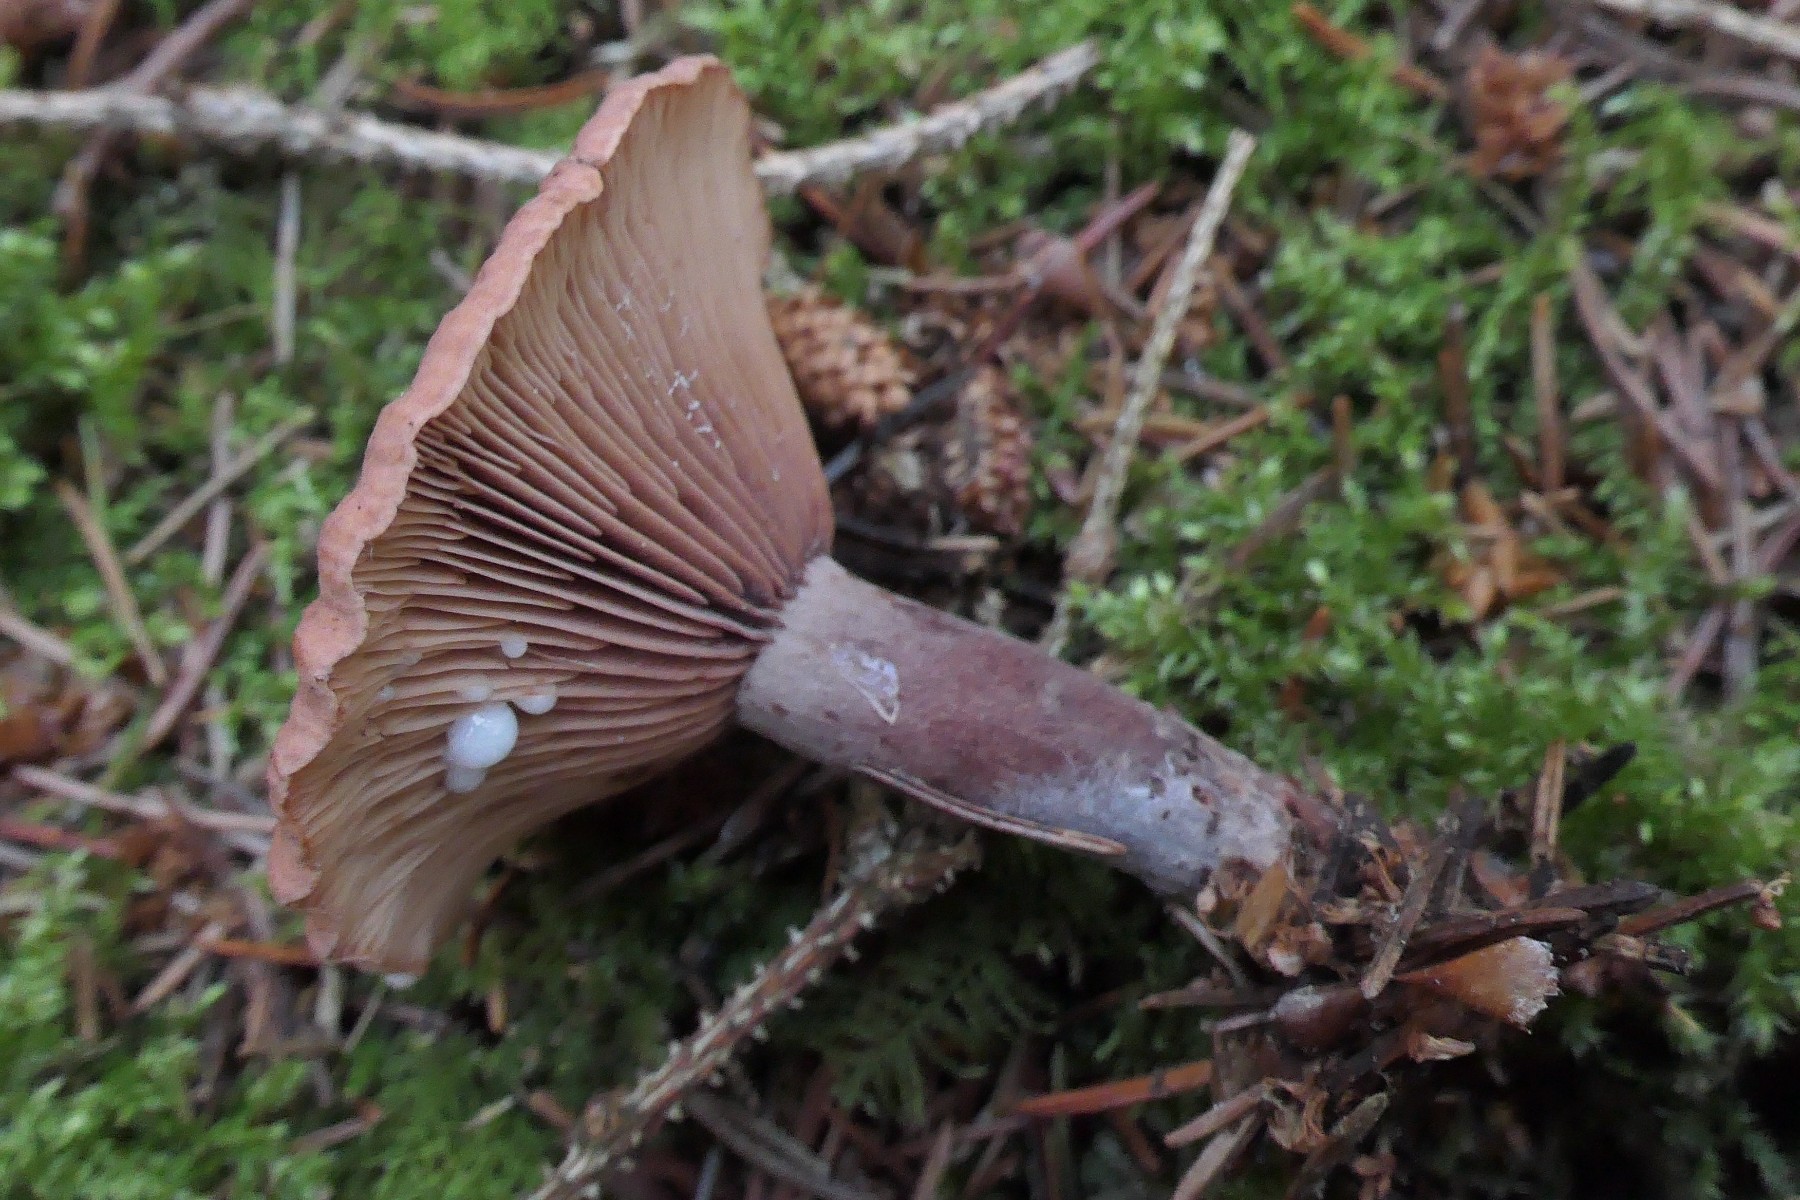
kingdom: Fungi
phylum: Basidiomycota
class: Agaricomycetes
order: Russulales
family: Russulaceae
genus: Lactarius
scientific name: Lactarius camphoratus
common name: kamfer-mælkehat
